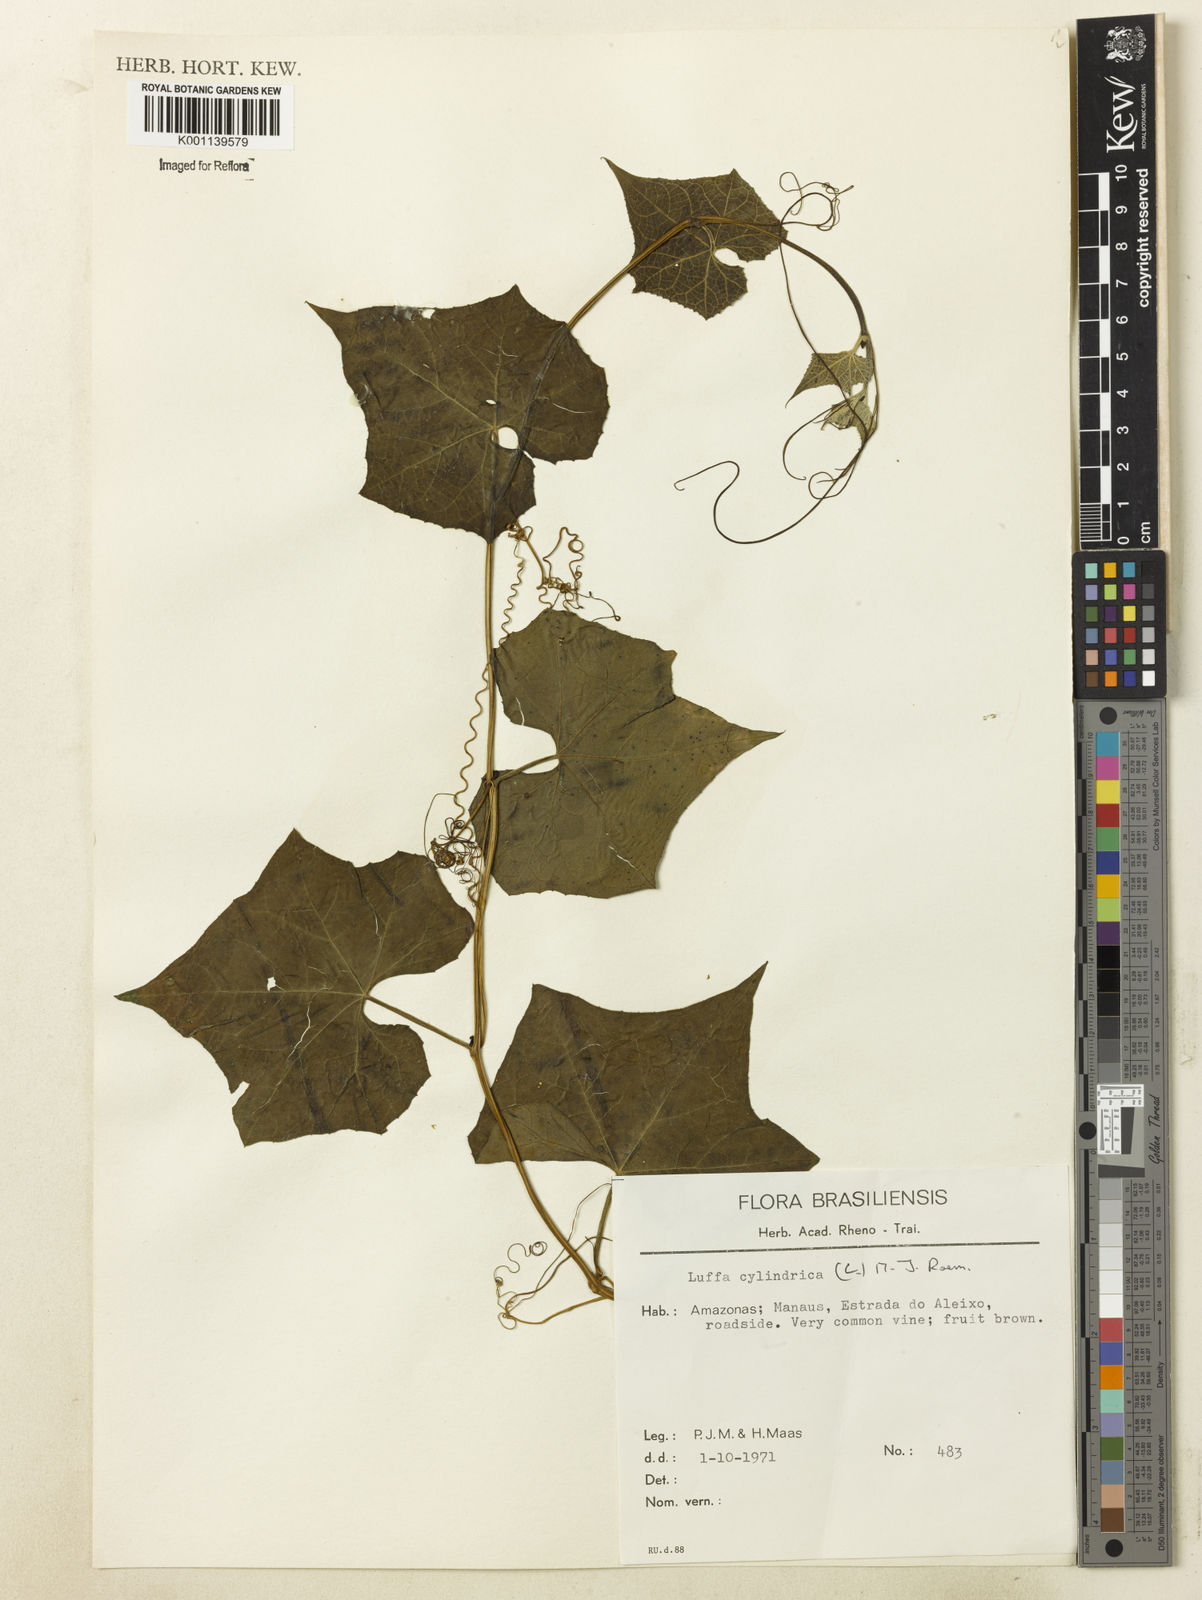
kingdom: Plantae
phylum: Tracheophyta
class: Magnoliopsida
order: Cucurbitales
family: Cucurbitaceae
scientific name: Cucurbitaceae
